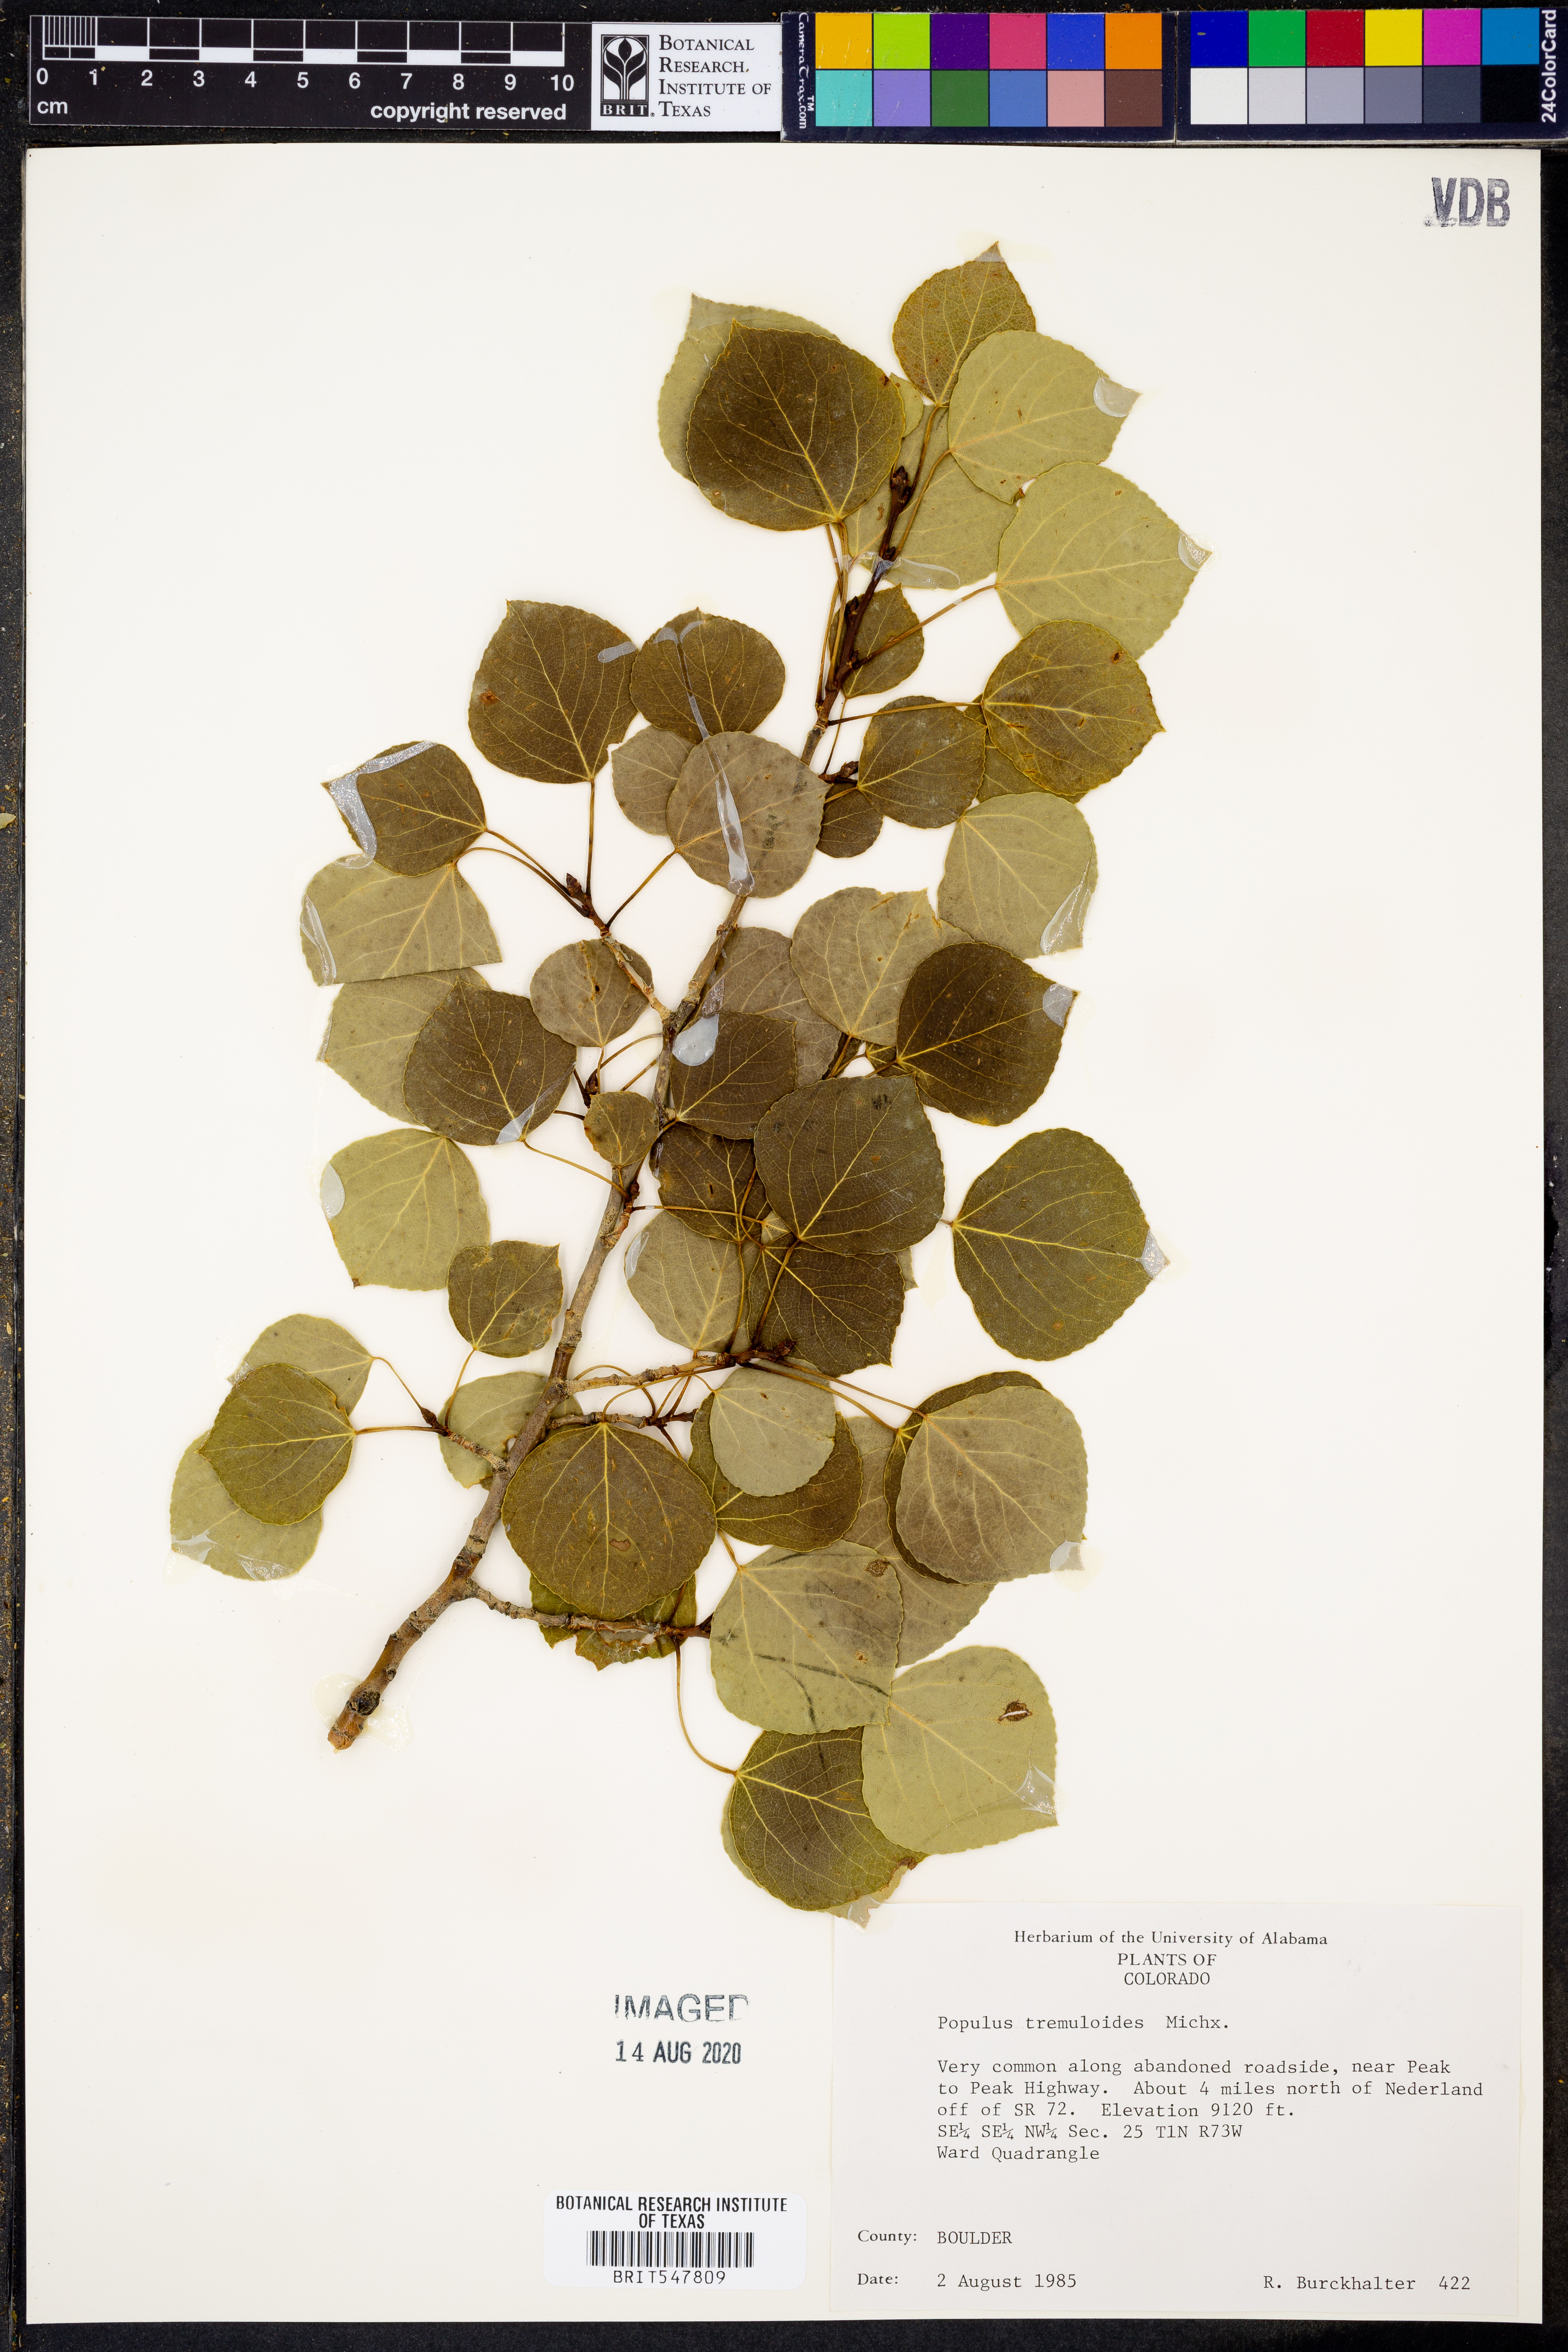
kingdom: Plantae
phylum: Tracheophyta
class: Magnoliopsida
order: Malpighiales
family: Salicaceae
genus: Populus
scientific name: Populus tremuloides
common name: Quaking aspen
